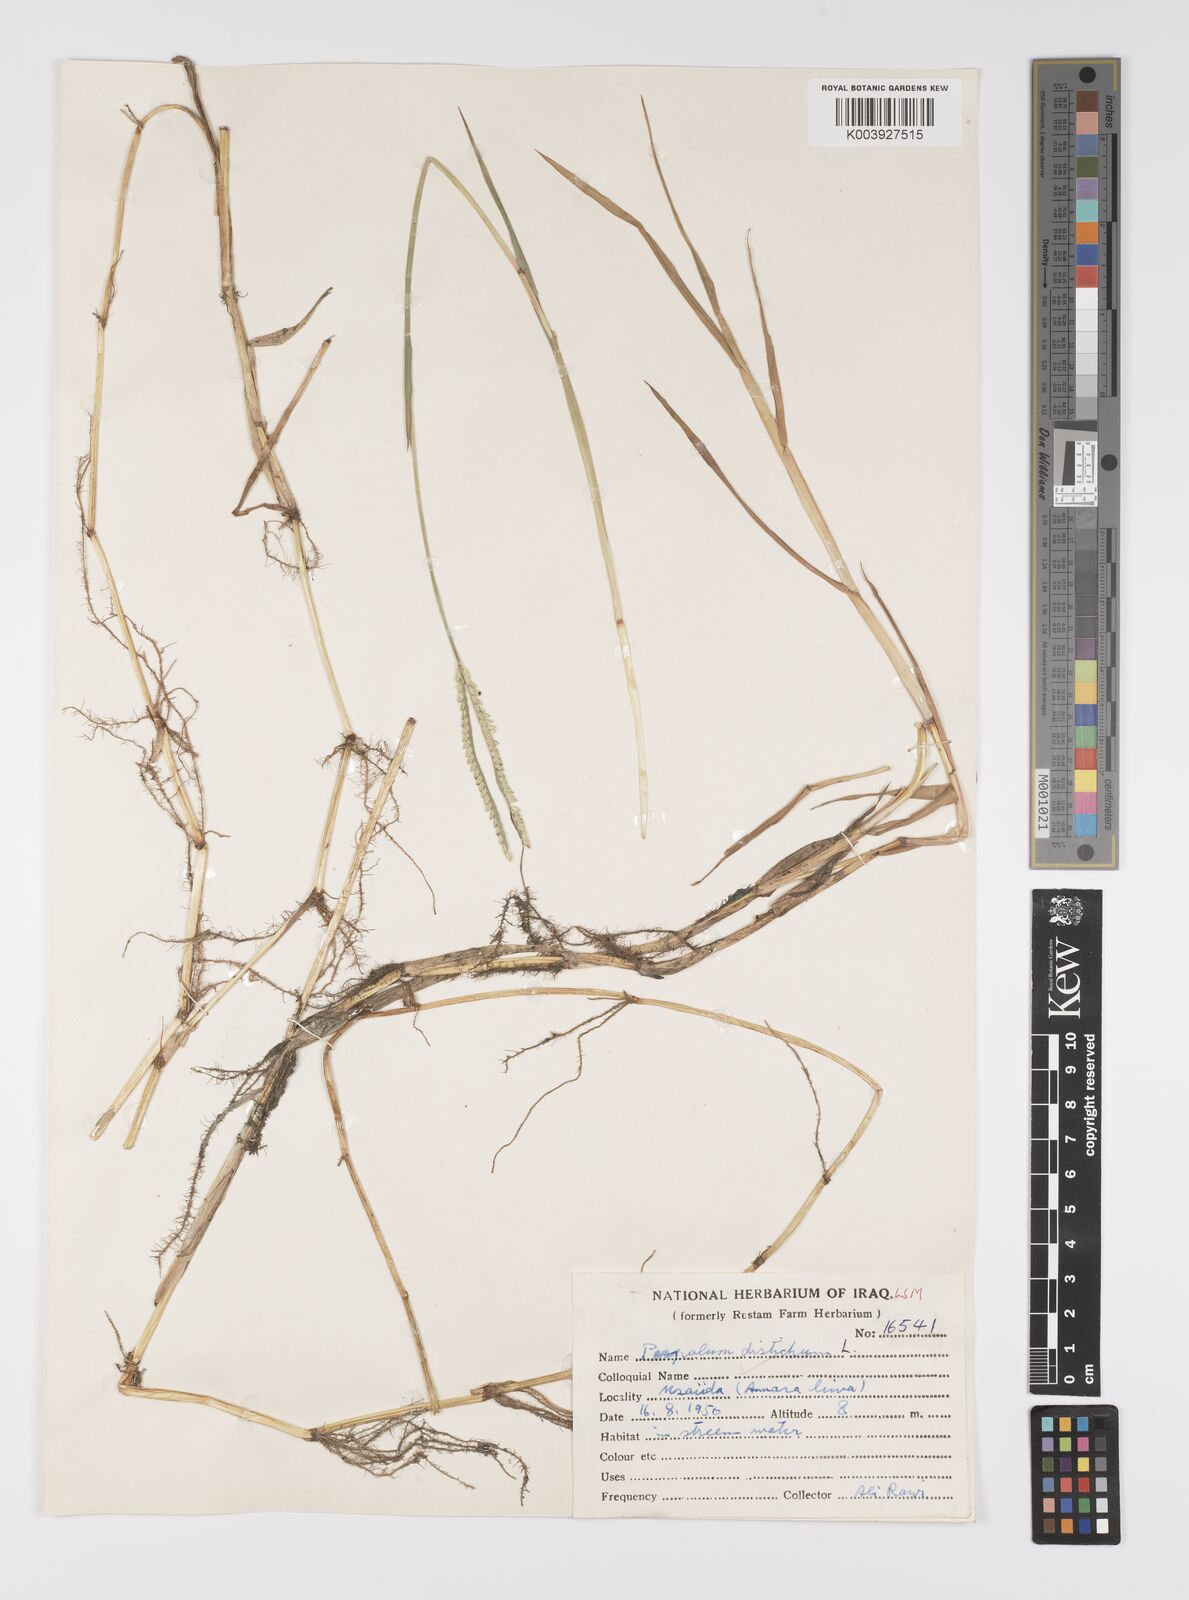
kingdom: Plantae
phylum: Tracheophyta
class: Liliopsida
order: Poales
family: Poaceae
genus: Paspalum
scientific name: Paspalum distichum
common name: Knotgrass
